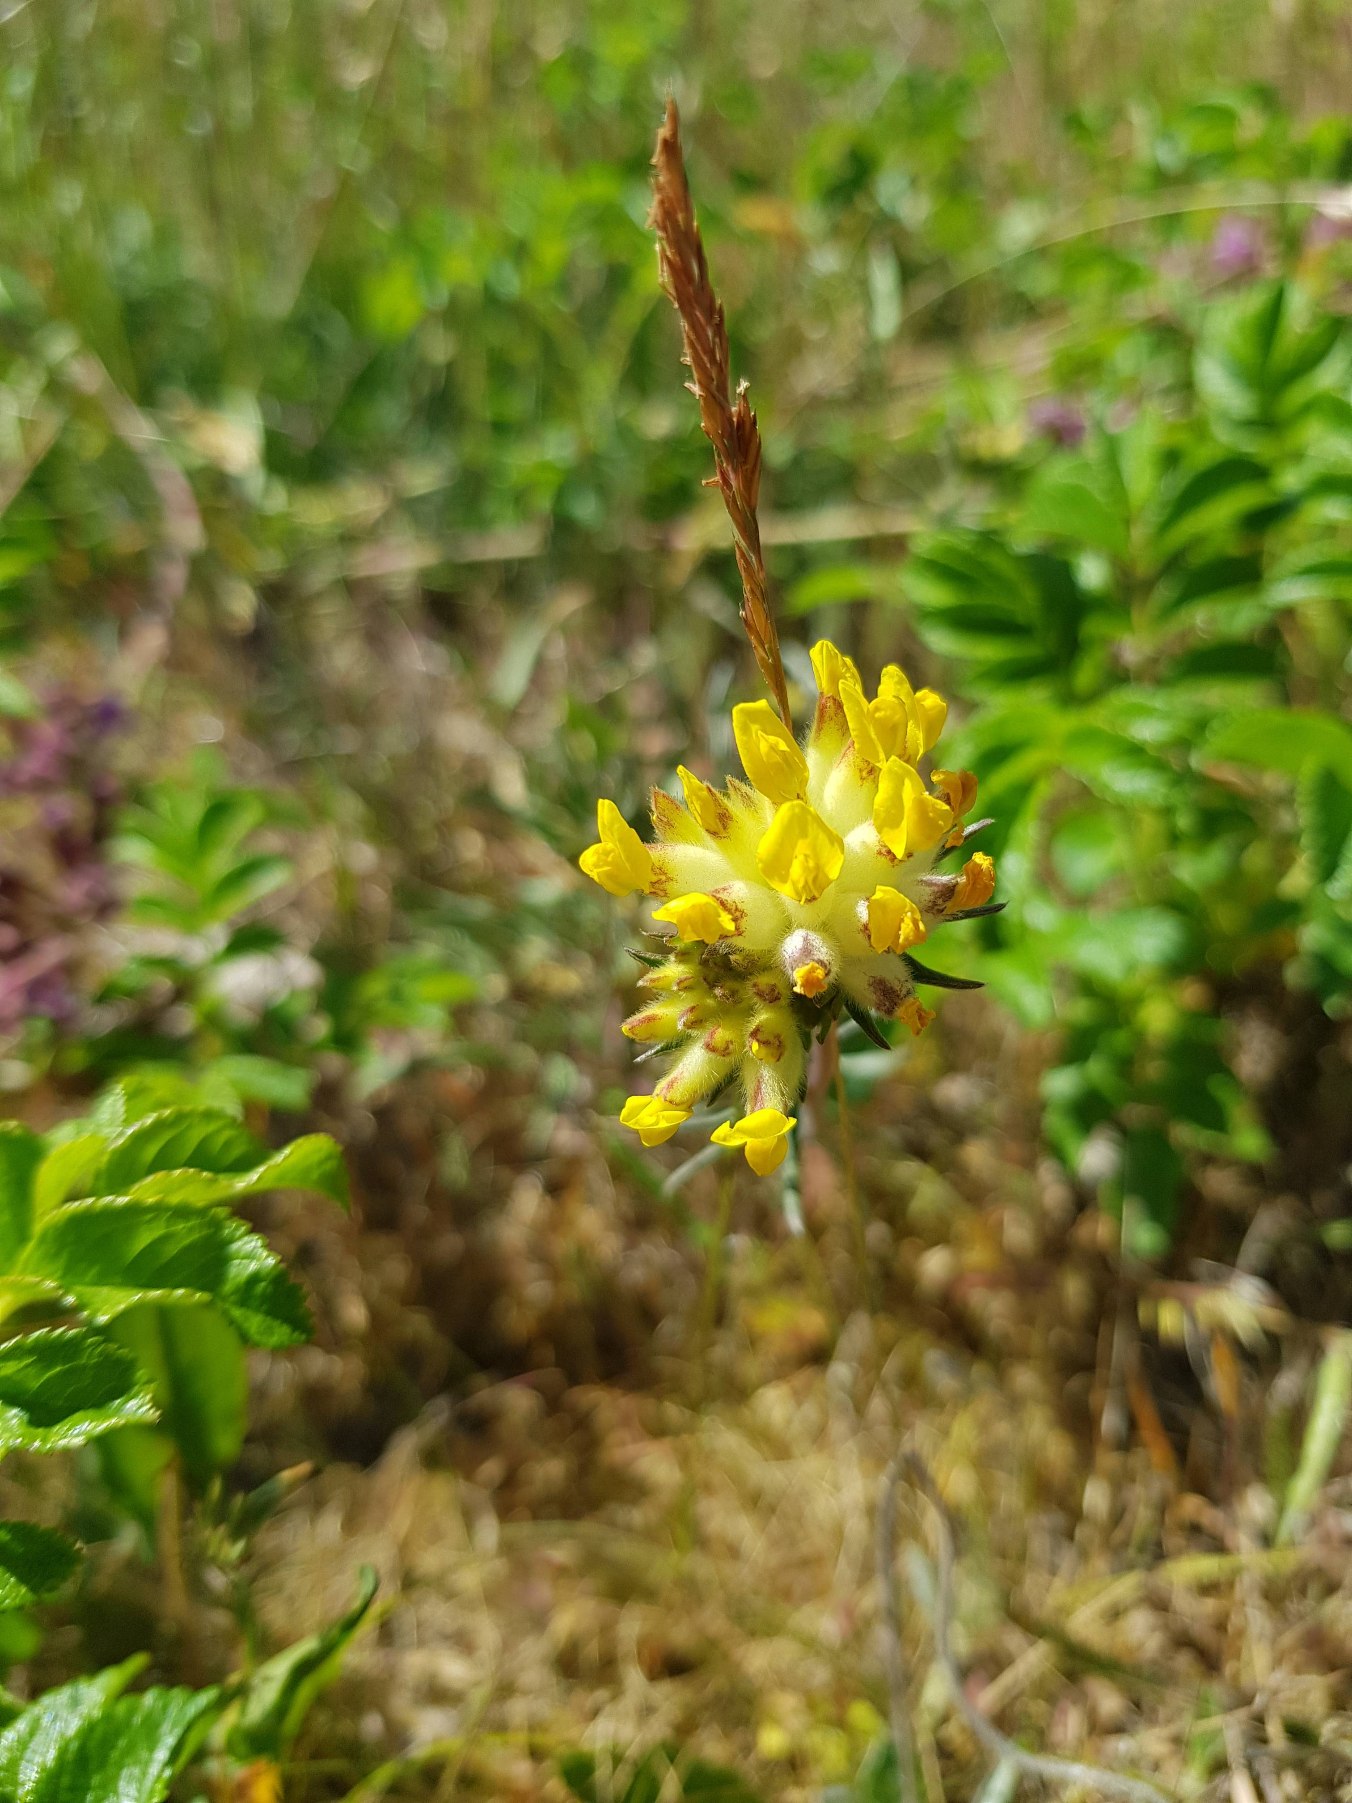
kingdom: Plantae
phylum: Tracheophyta
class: Magnoliopsida
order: Fabales
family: Fabaceae
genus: Anthyllis
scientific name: Anthyllis vulneraria
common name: Rundbælg
